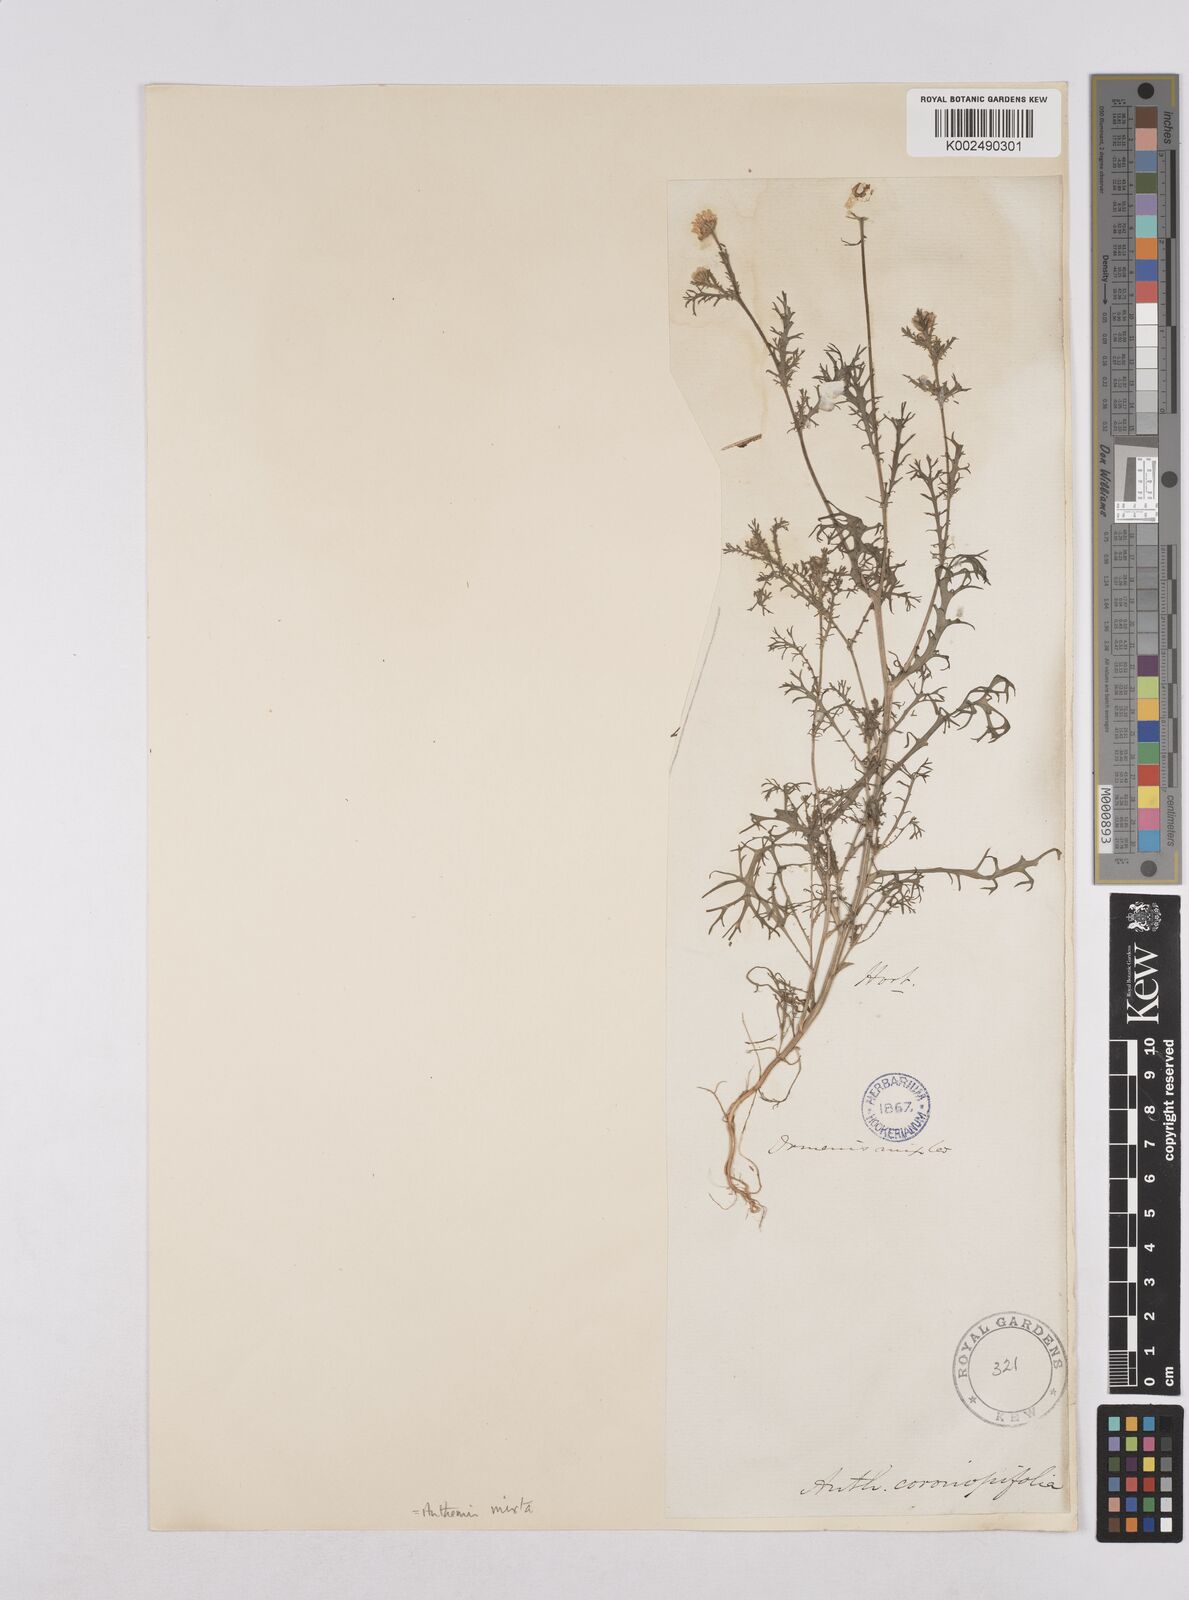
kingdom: Plantae
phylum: Tracheophyta
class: Magnoliopsida
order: Asterales
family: Asteraceae
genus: Cladanthus
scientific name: Cladanthus mixtus
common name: Weedy dogfennel
